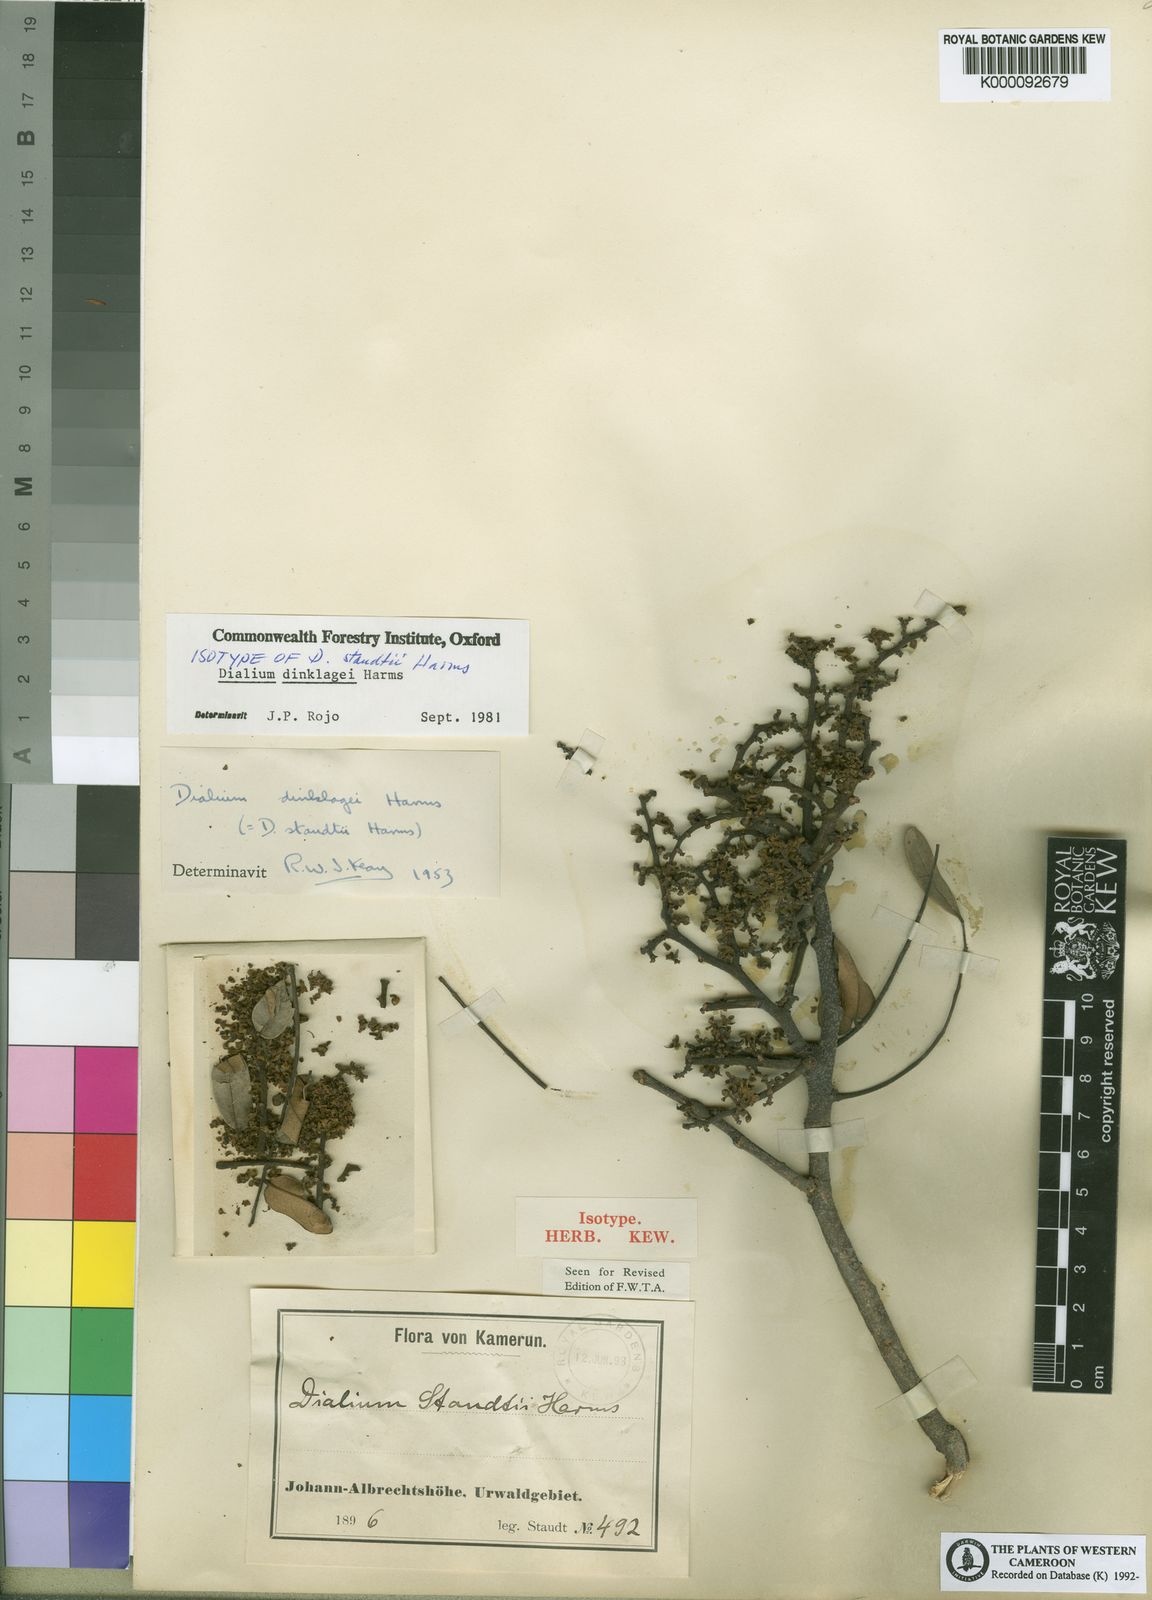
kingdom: Plantae
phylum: Tracheophyta
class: Magnoliopsida
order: Fabales
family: Fabaceae
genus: Dialium
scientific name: Dialium dinklagei
